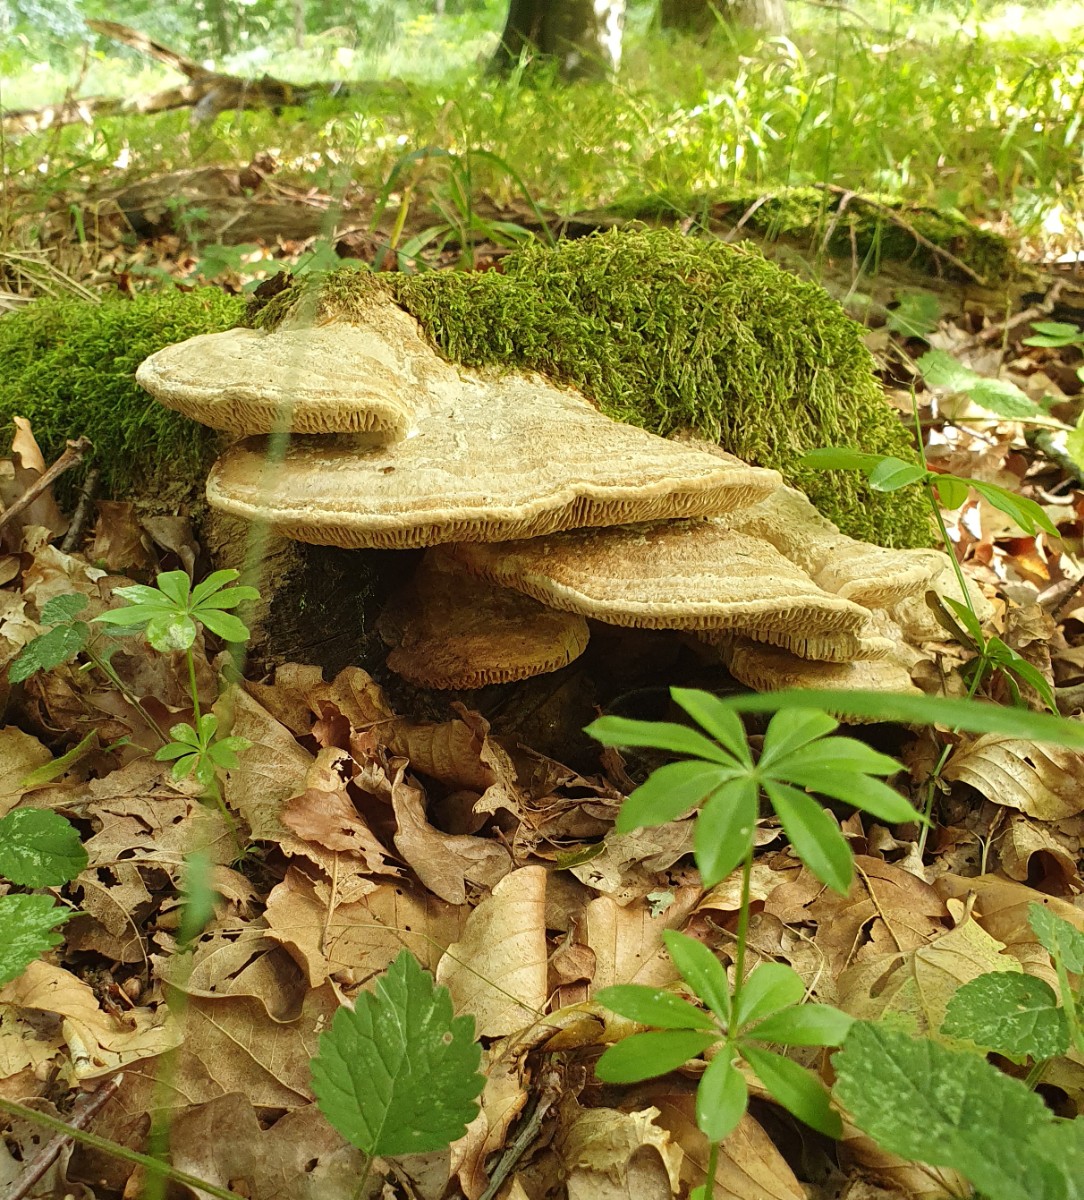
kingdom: Fungi
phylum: Basidiomycota
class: Agaricomycetes
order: Polyporales
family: Fomitopsidaceae
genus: Daedalea
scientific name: Daedalea quercina
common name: ege-labyrintsvamp
